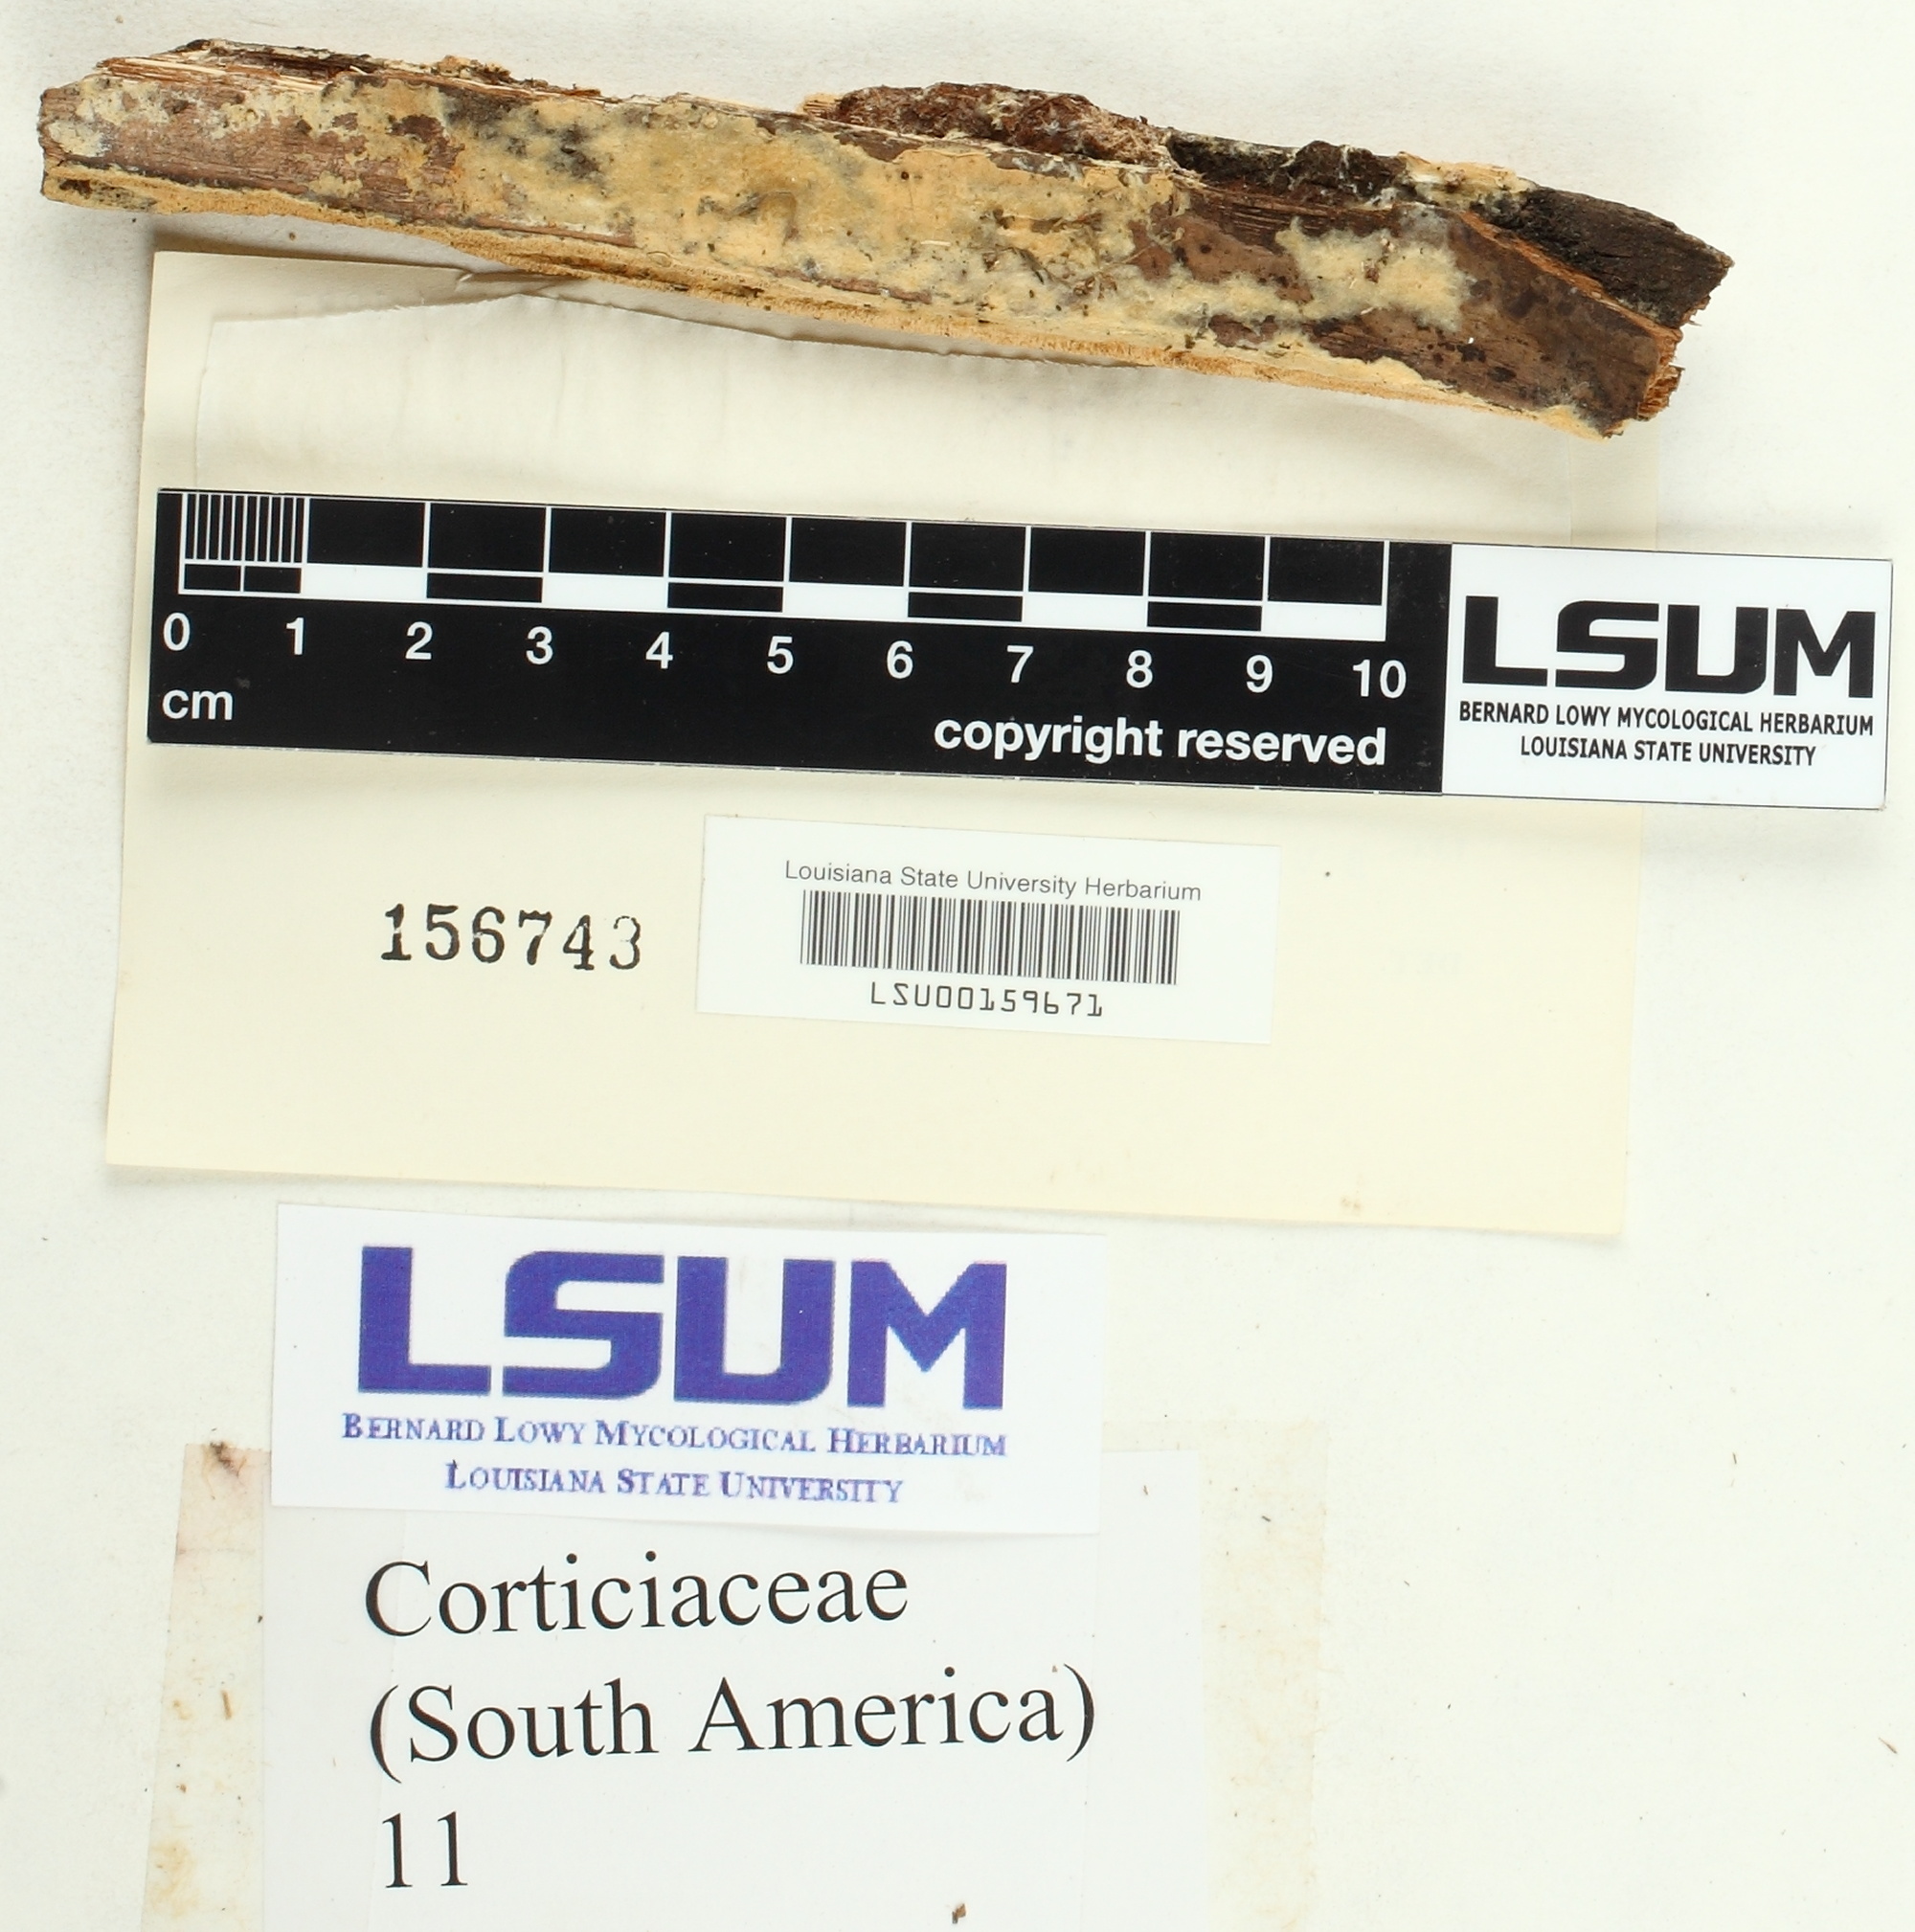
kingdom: Fungi
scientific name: Fungi
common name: Fungi
